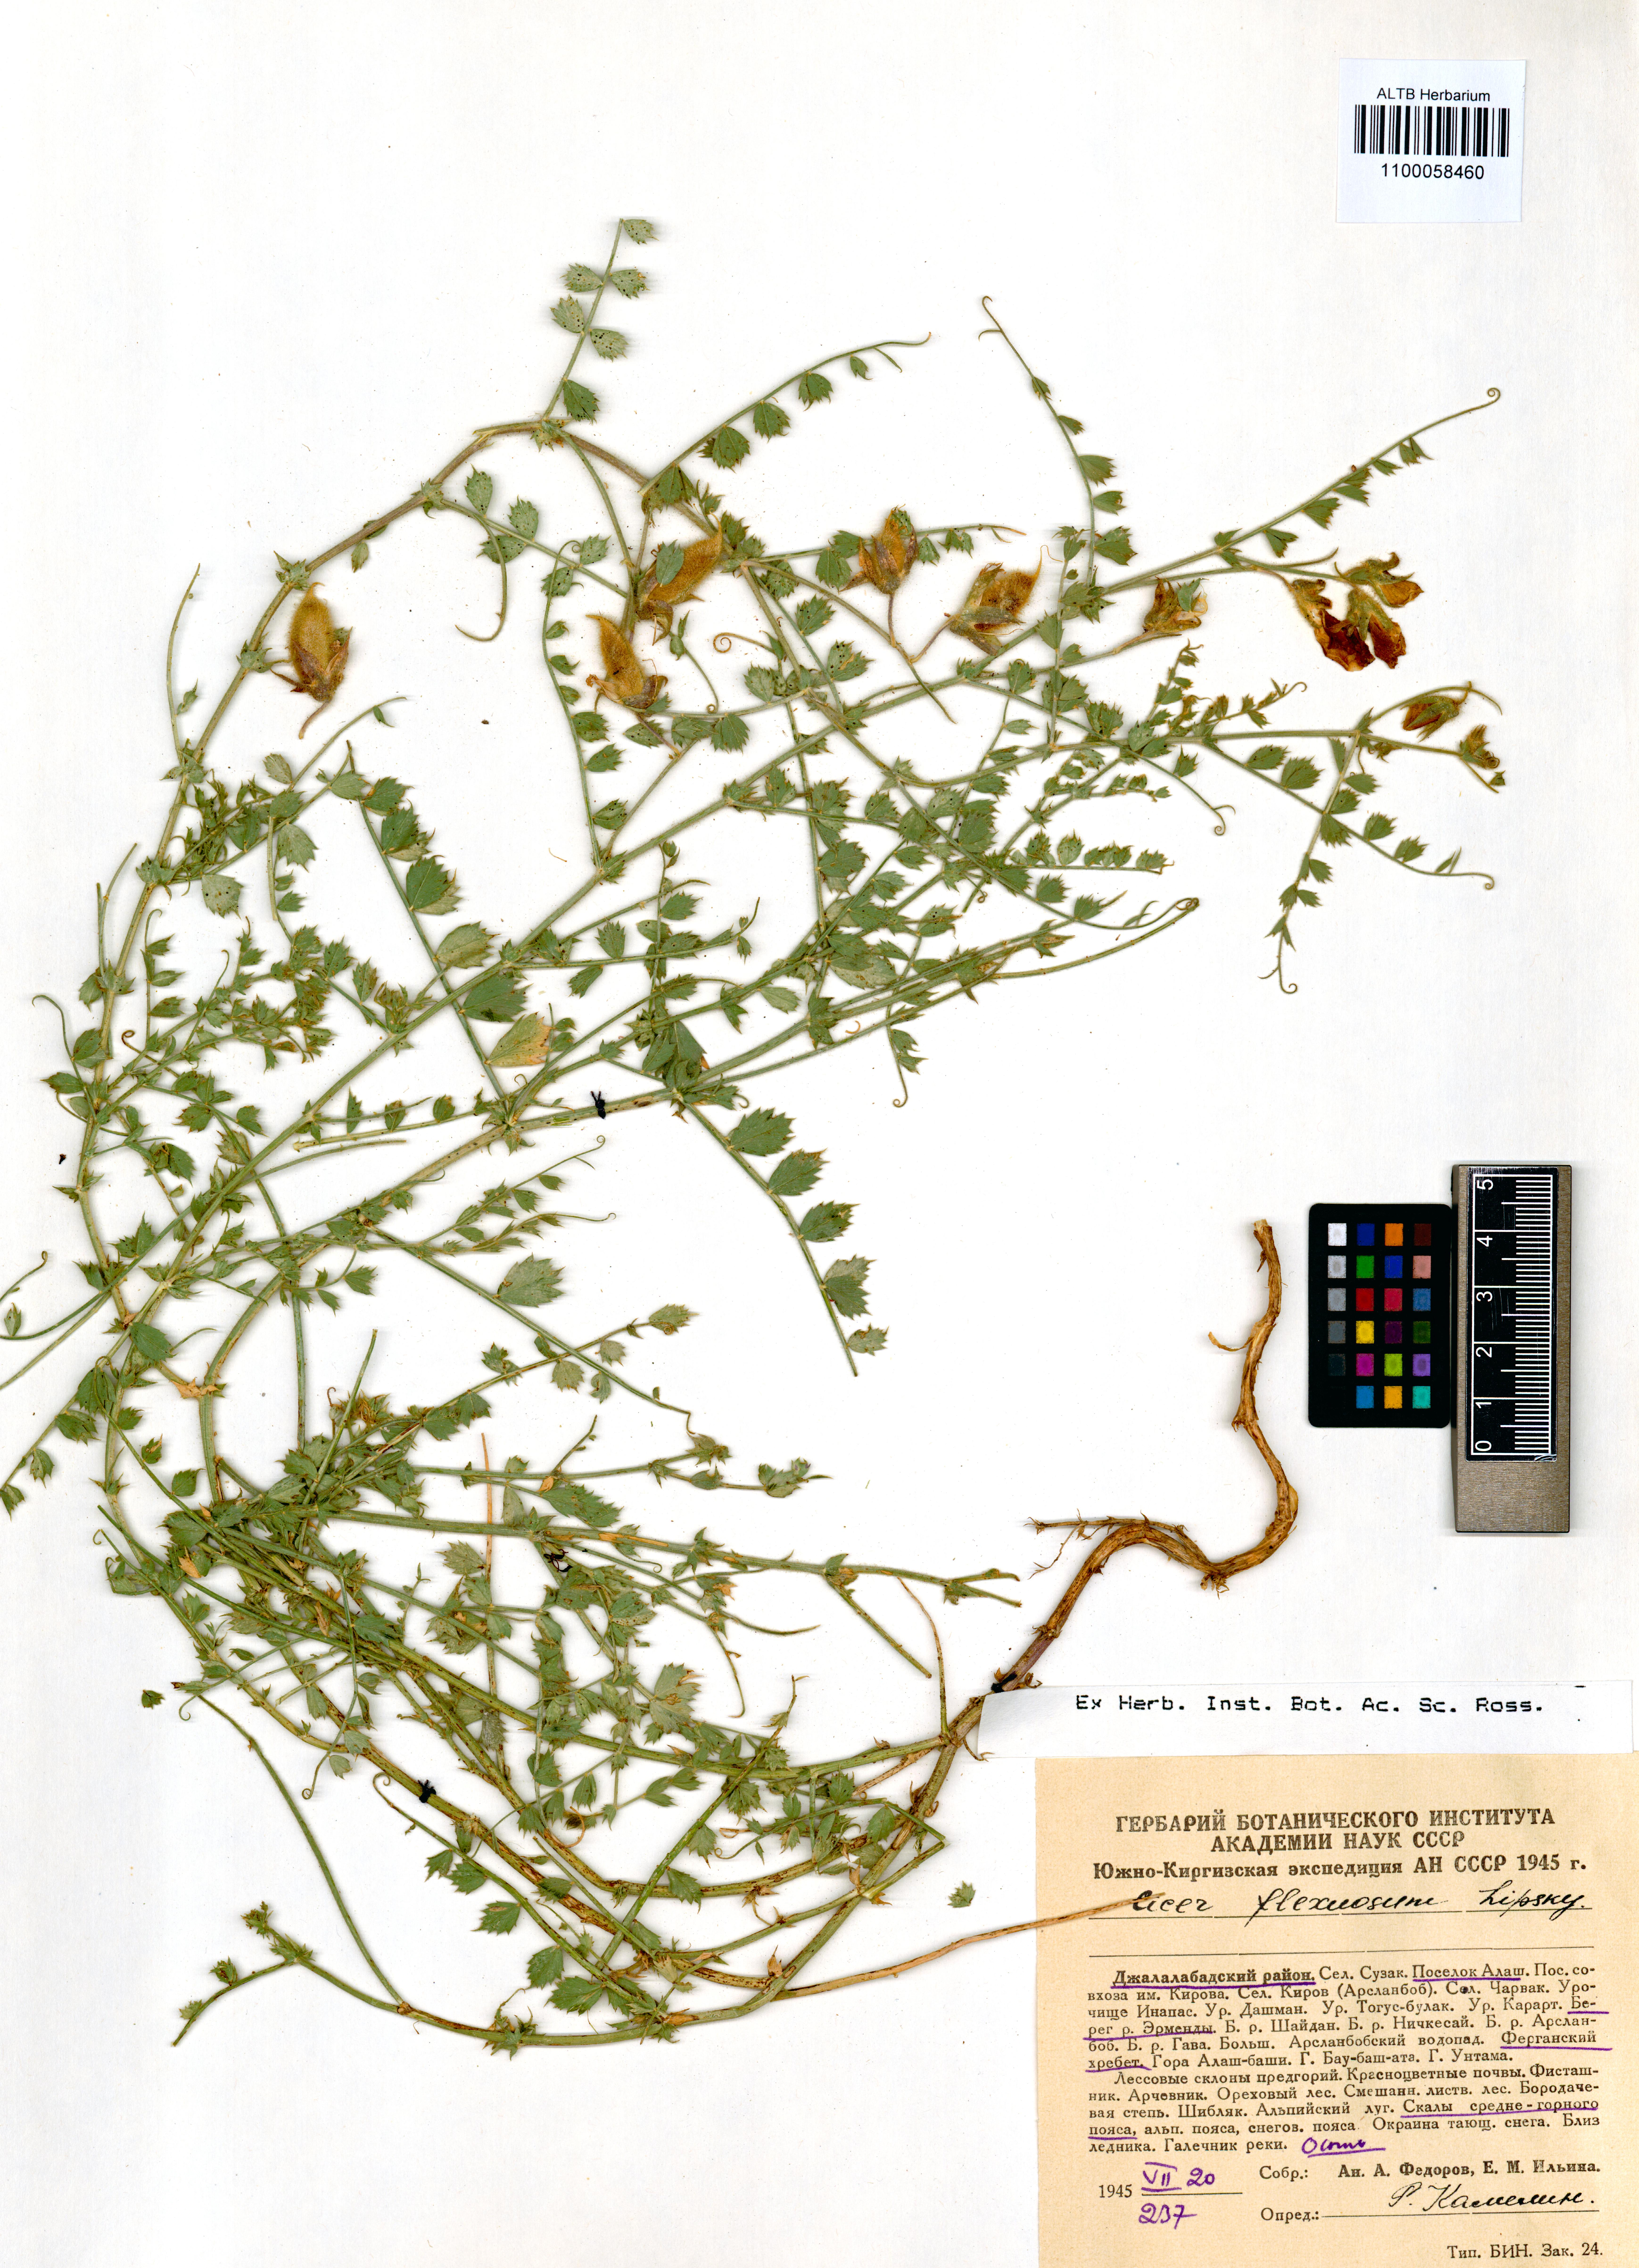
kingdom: Plantae
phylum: Tracheophyta
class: Magnoliopsida
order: Fabales
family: Fabaceae
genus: Cicer
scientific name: Cicer flexuosum
